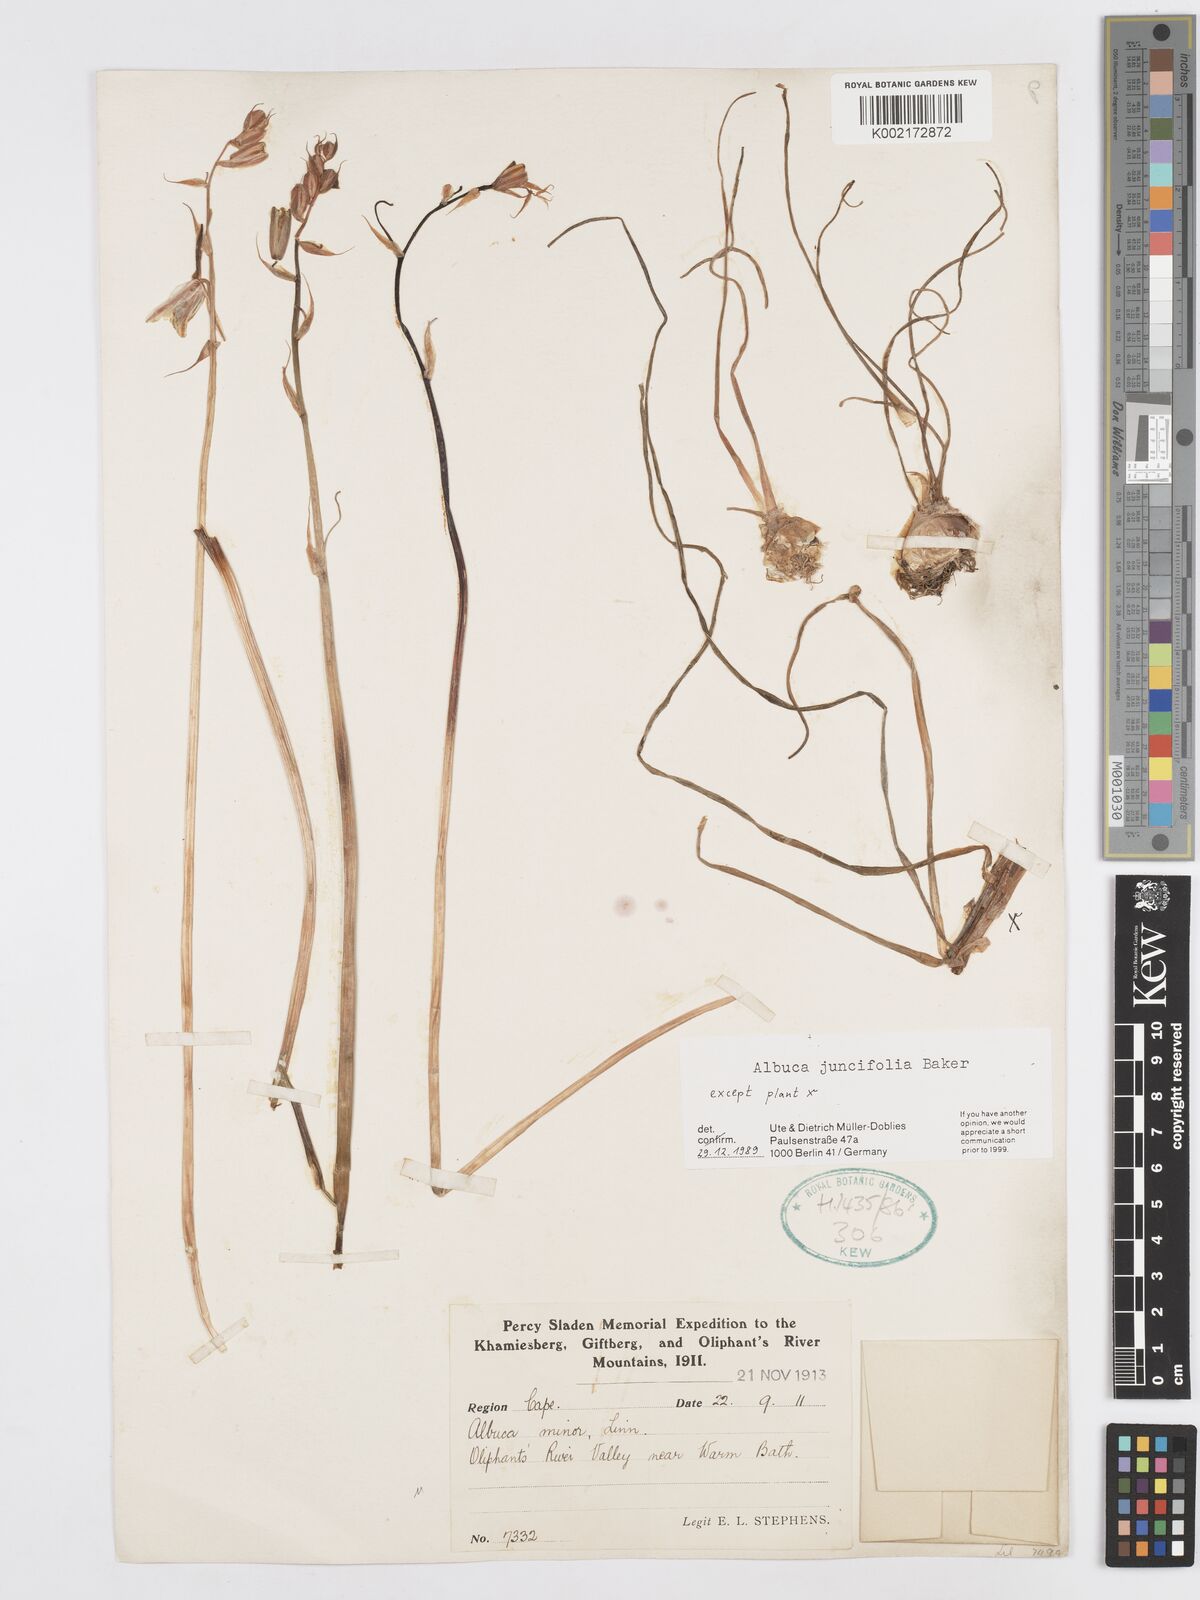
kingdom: Plantae
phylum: Tracheophyta
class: Liliopsida
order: Asparagales
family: Asparagaceae
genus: Albuca
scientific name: Albuca juncifolia
